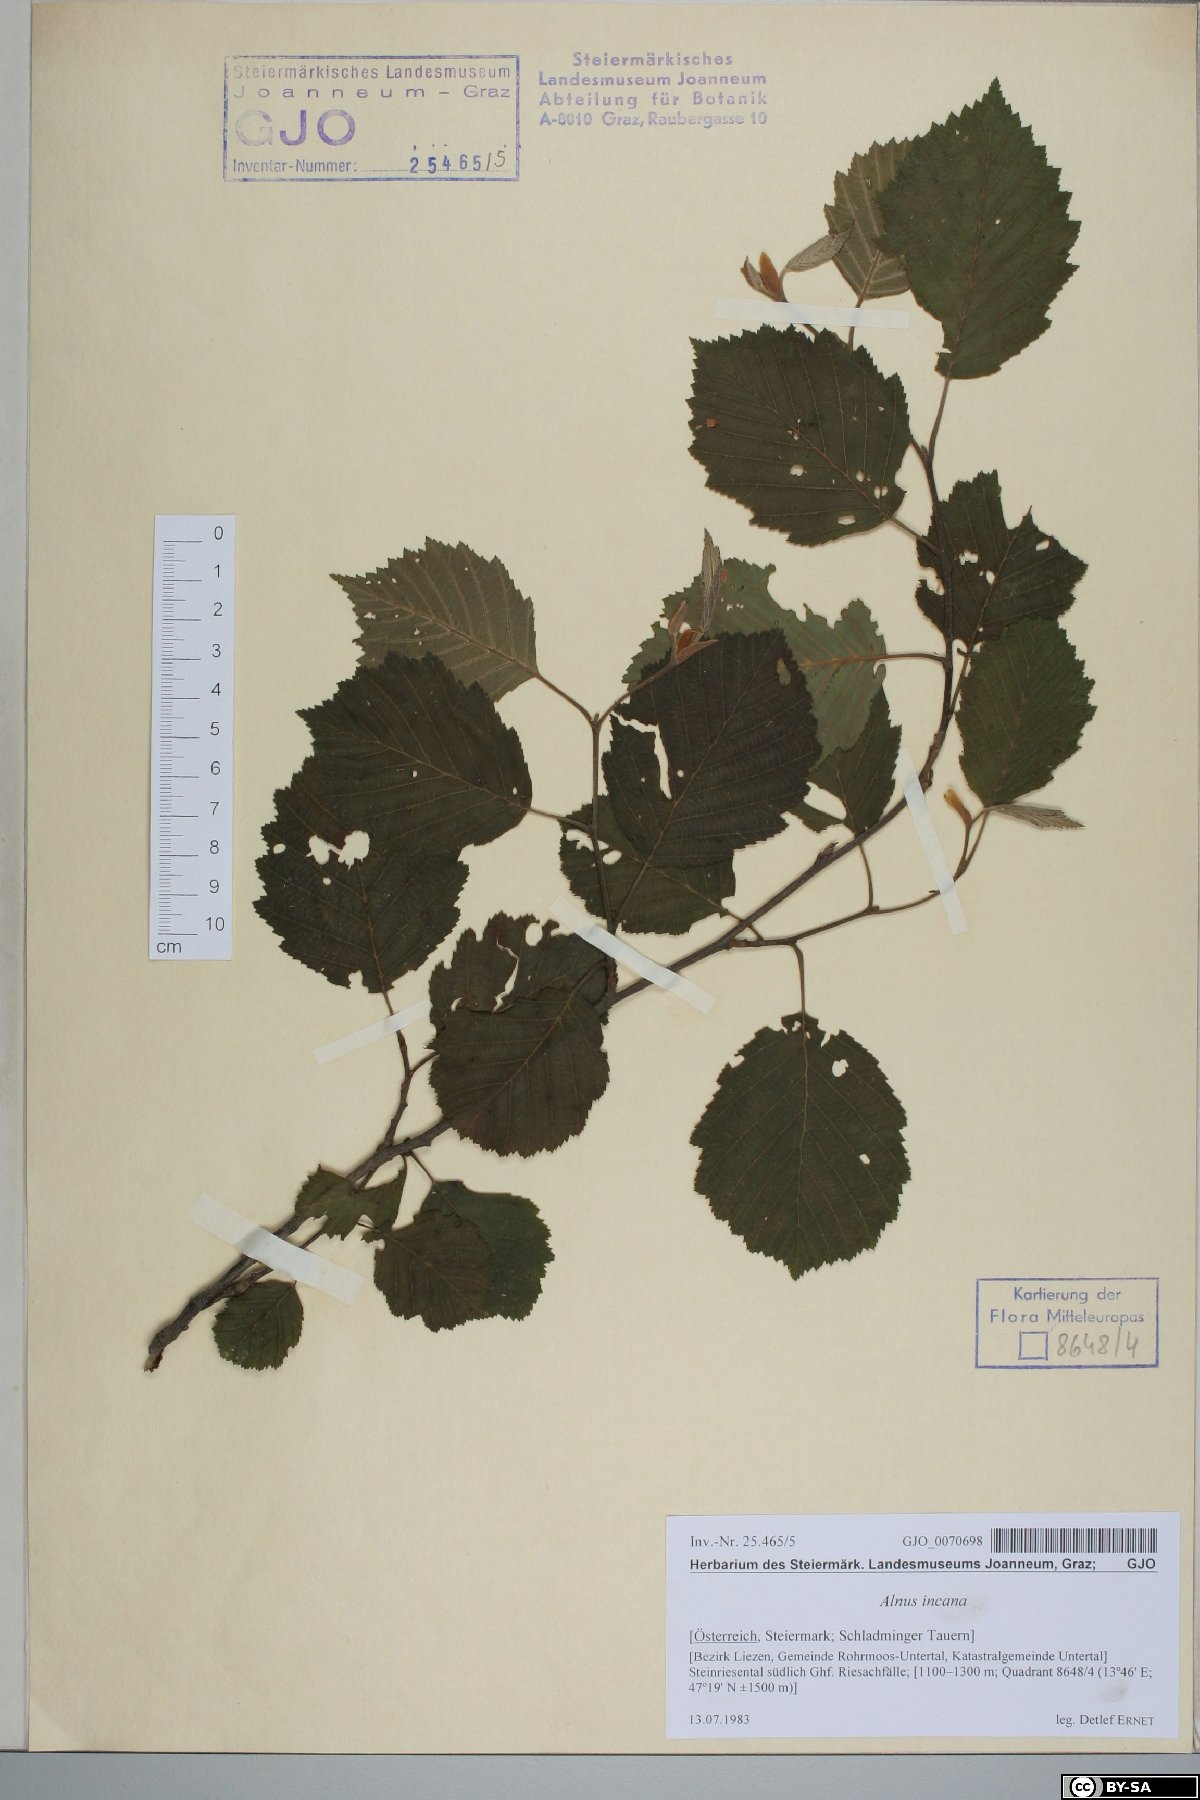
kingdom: Plantae
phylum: Tracheophyta
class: Magnoliopsida
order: Fagales
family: Betulaceae
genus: Alnus
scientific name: Alnus incana
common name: Grey alder
